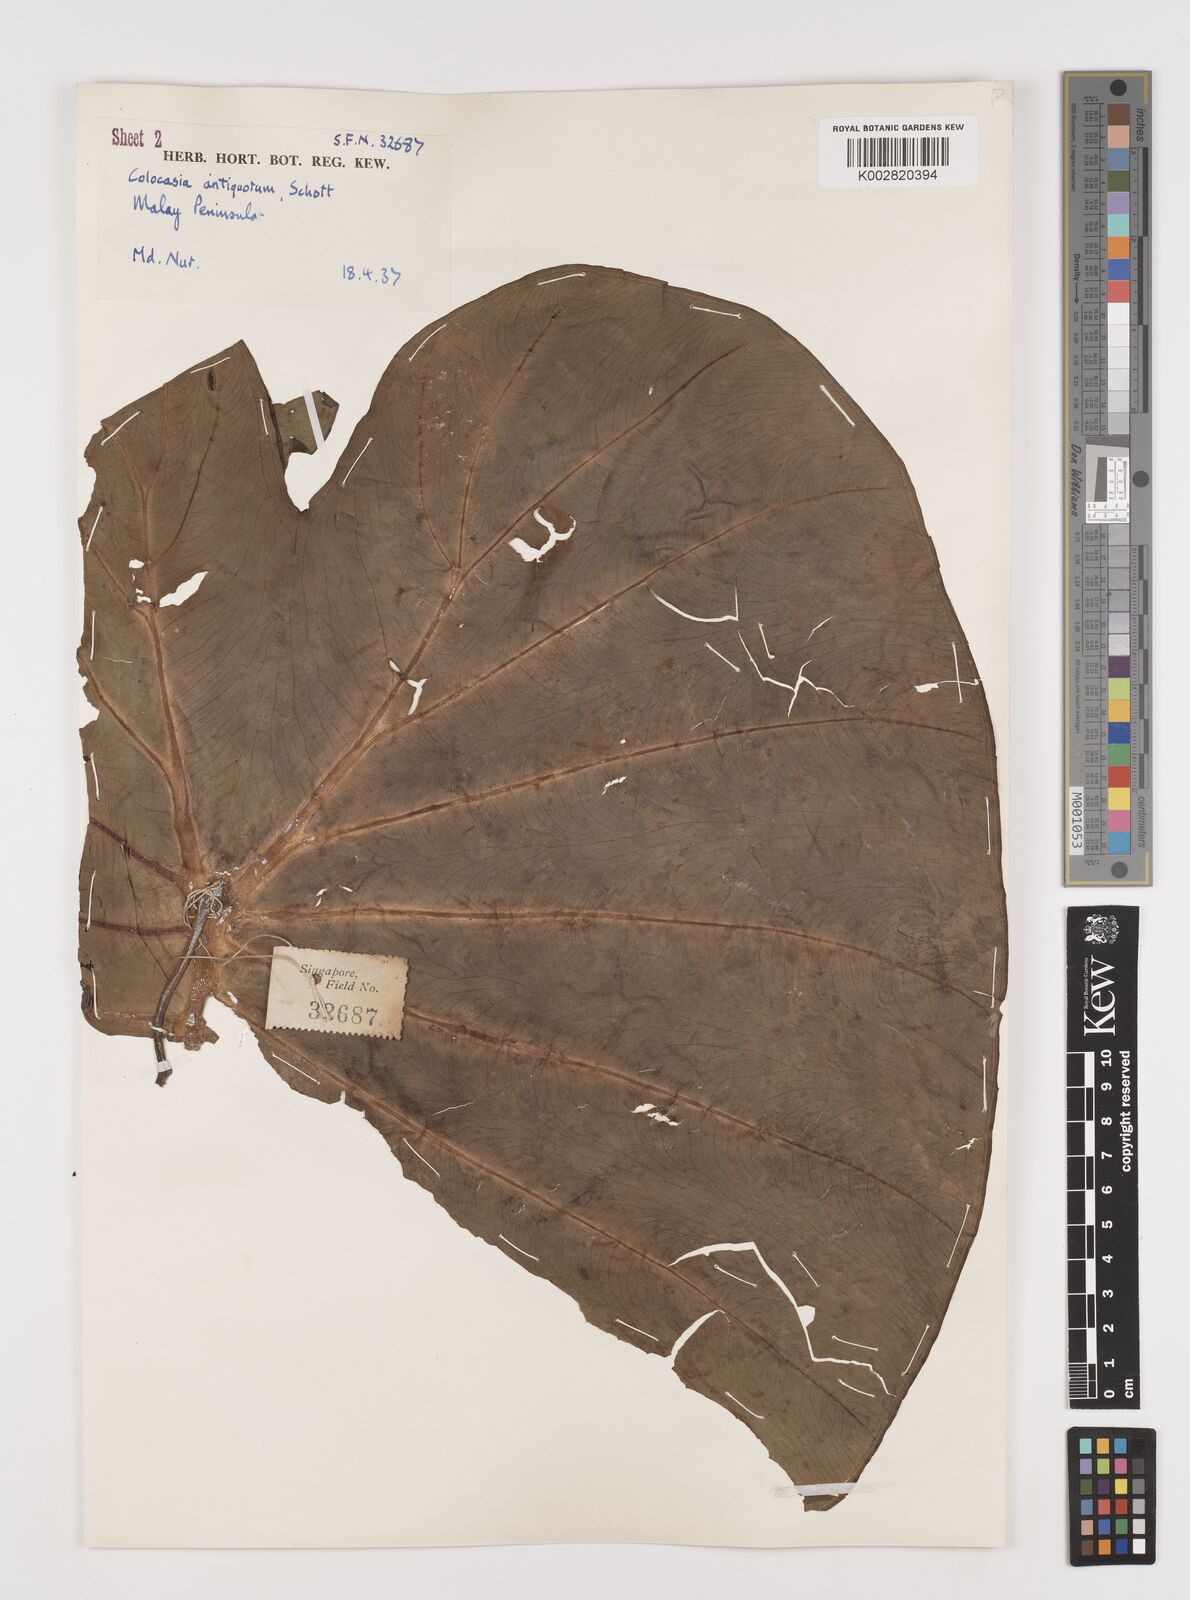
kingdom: Plantae
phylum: Tracheophyta
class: Liliopsida
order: Alismatales
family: Araceae
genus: Colocasia
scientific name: Colocasia esculenta
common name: Taro
